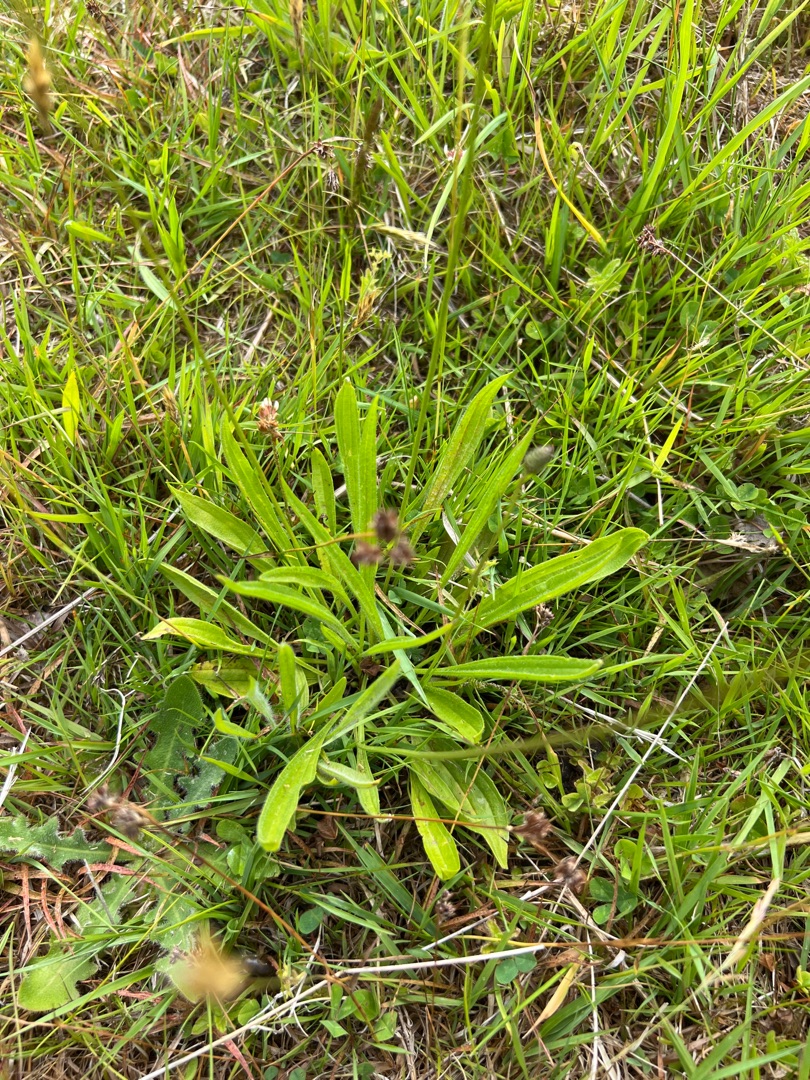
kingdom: Plantae
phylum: Tracheophyta
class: Magnoliopsida
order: Lamiales
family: Plantaginaceae
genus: Plantago
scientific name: Plantago lanceolata
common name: Lancet-vejbred
